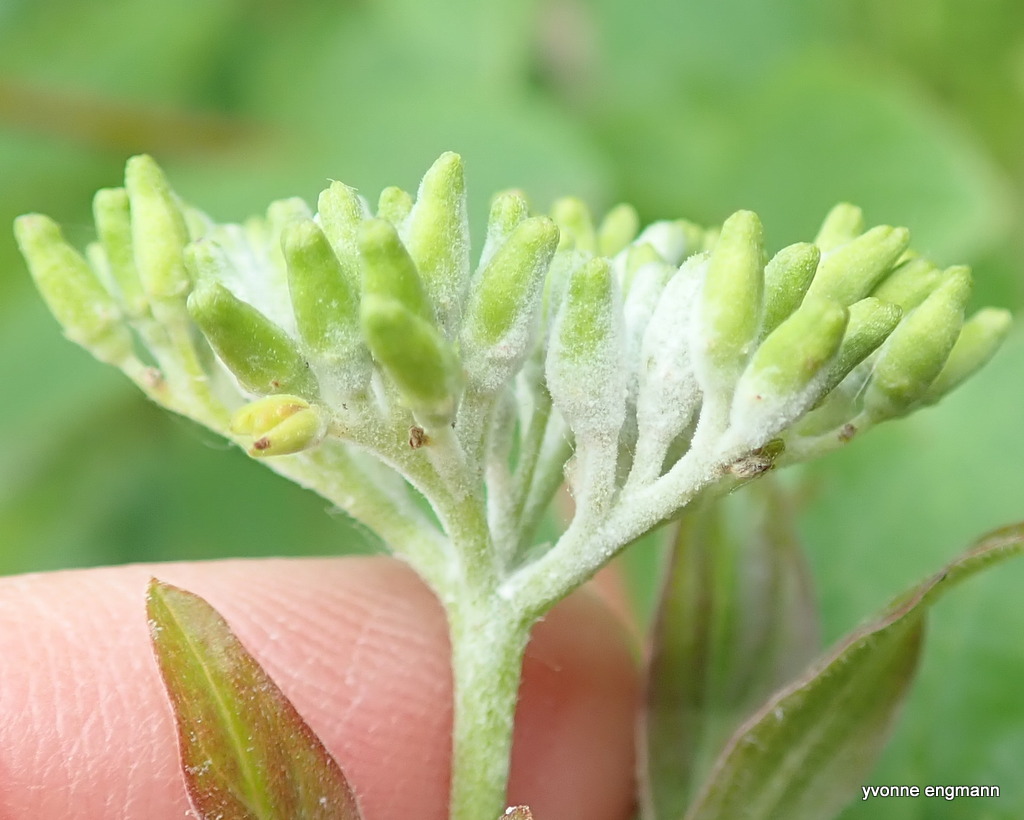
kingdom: Fungi
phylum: Ascomycota
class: Leotiomycetes
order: Helotiales
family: Erysiphaceae
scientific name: Erysiphaceae
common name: meldugfamilien
